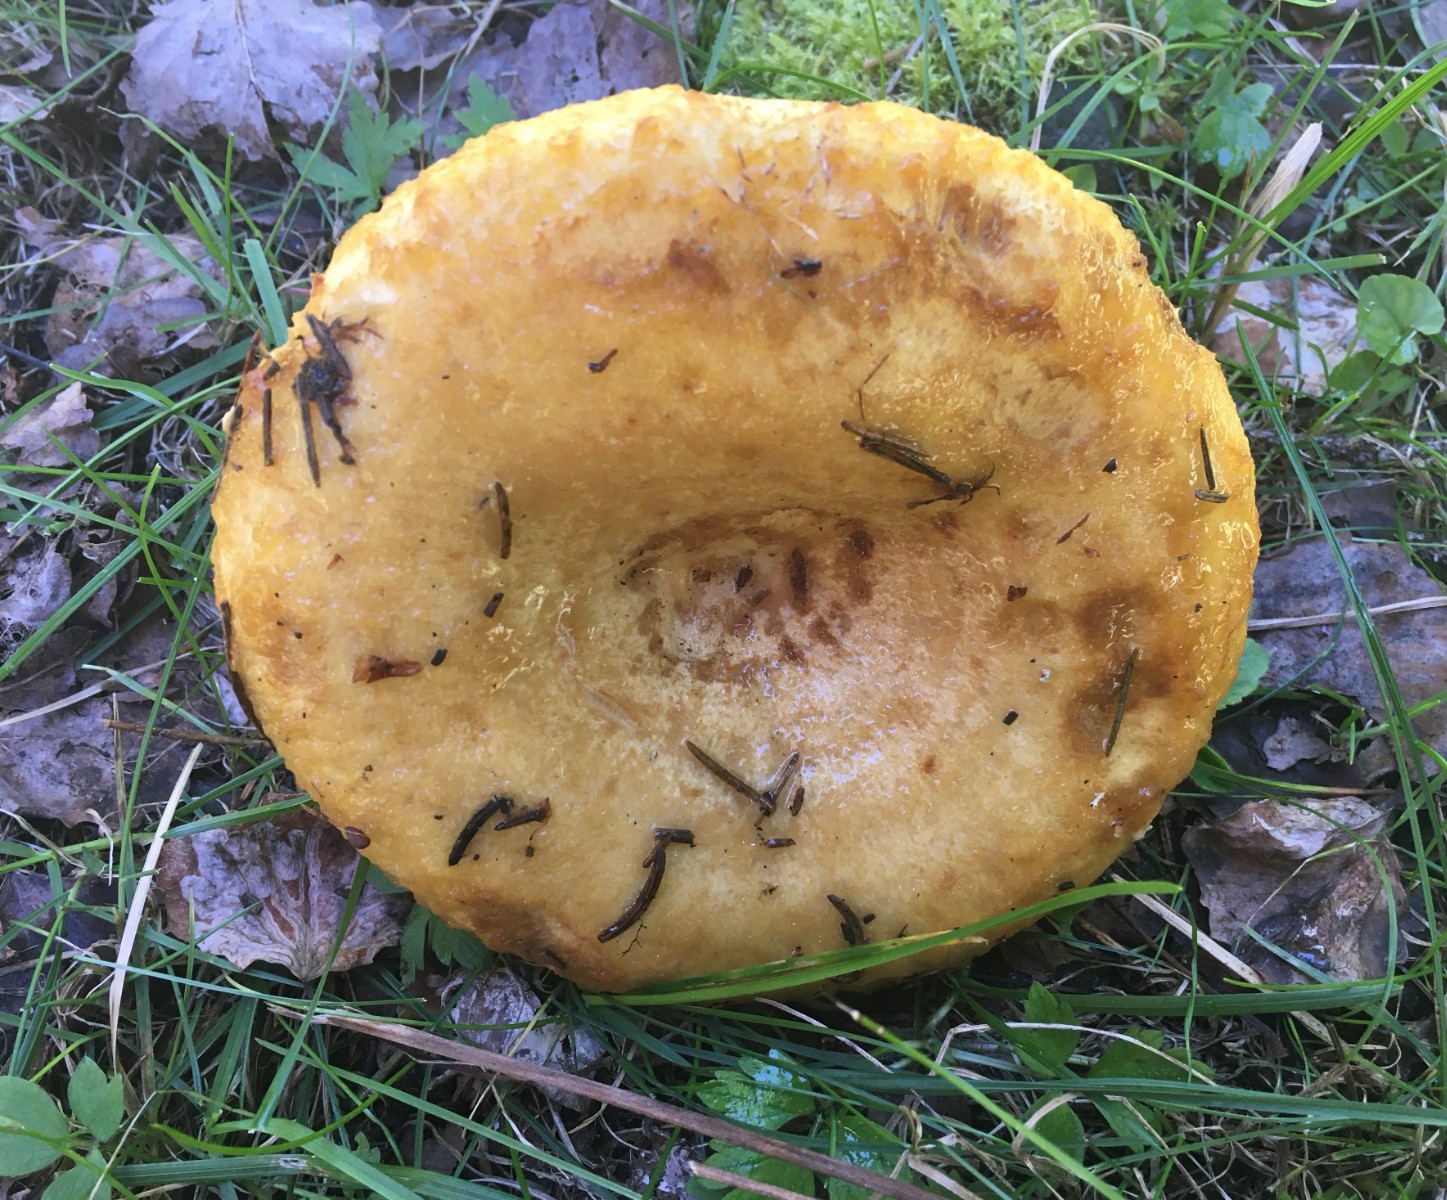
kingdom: Fungi
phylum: Basidiomycota
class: Agaricomycetes
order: Russulales
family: Russulaceae
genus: Lactarius
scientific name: Lactarius scrobiculatus
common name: grubestokket mælkehat
